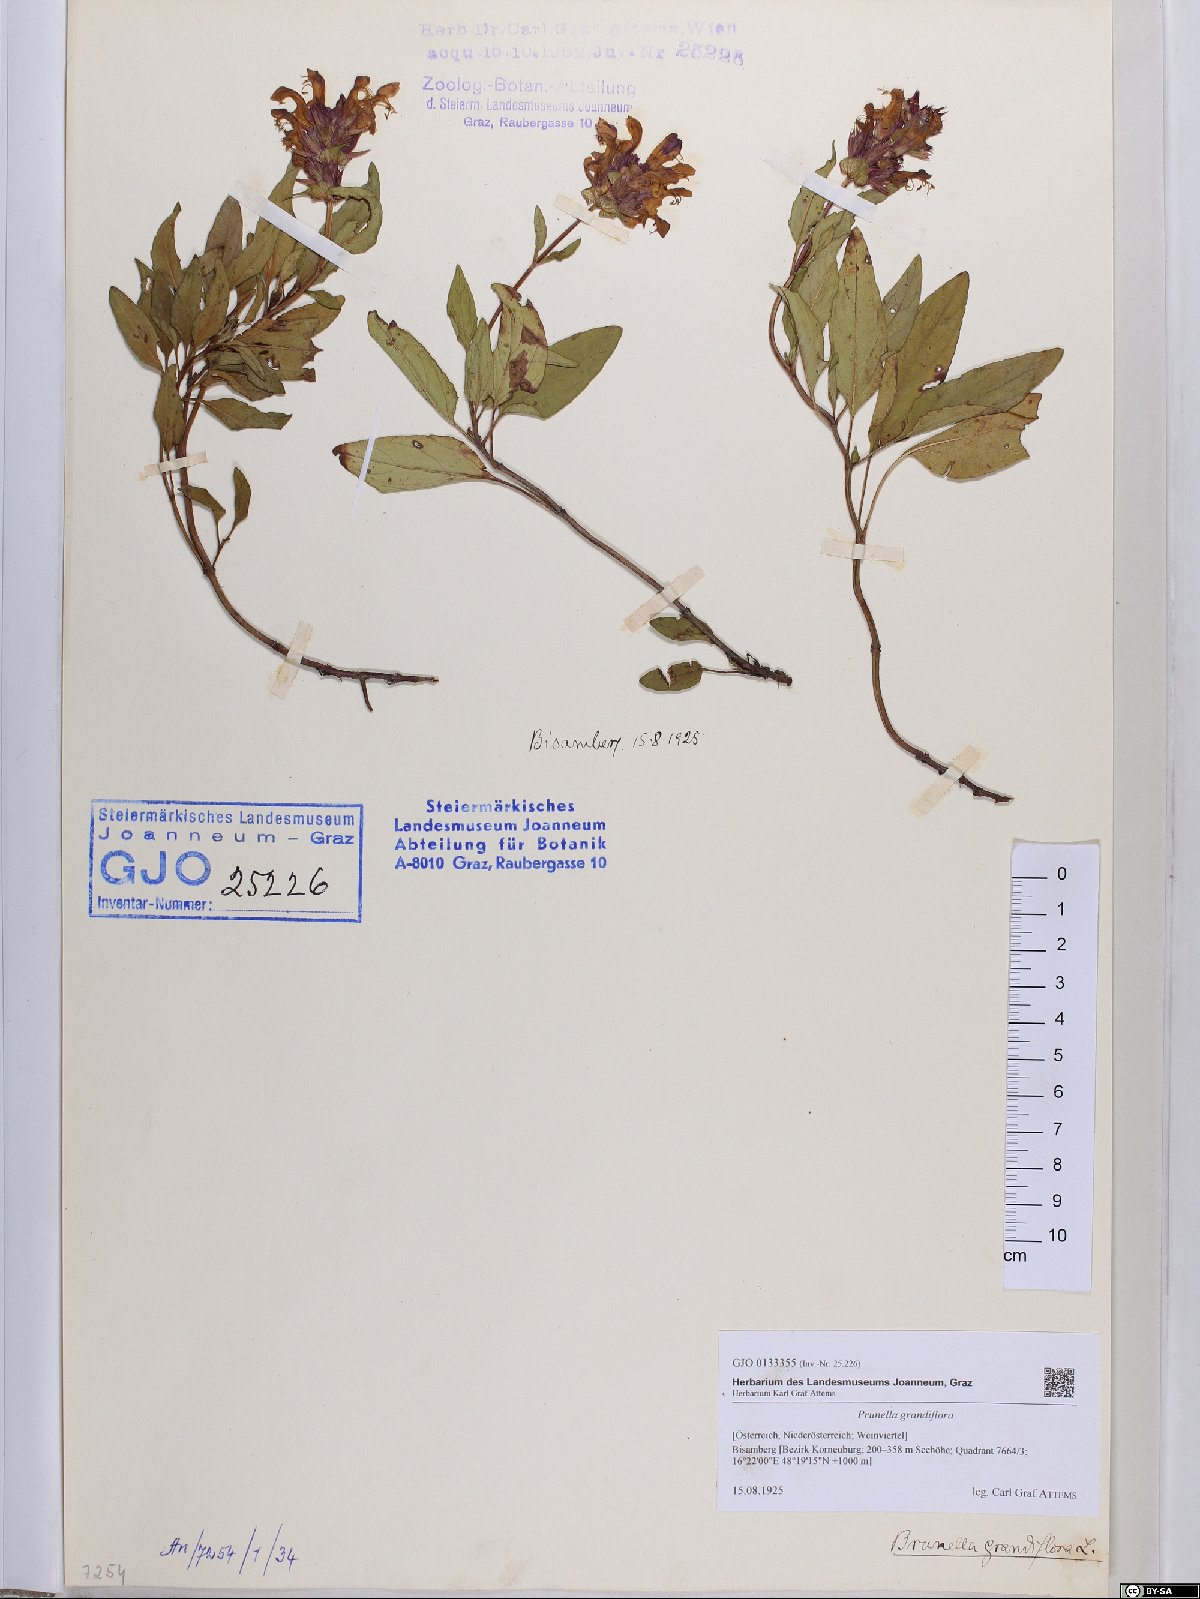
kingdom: Plantae
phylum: Tracheophyta
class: Magnoliopsida
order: Lamiales
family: Lamiaceae
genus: Prunella
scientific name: Prunella grandiflora
